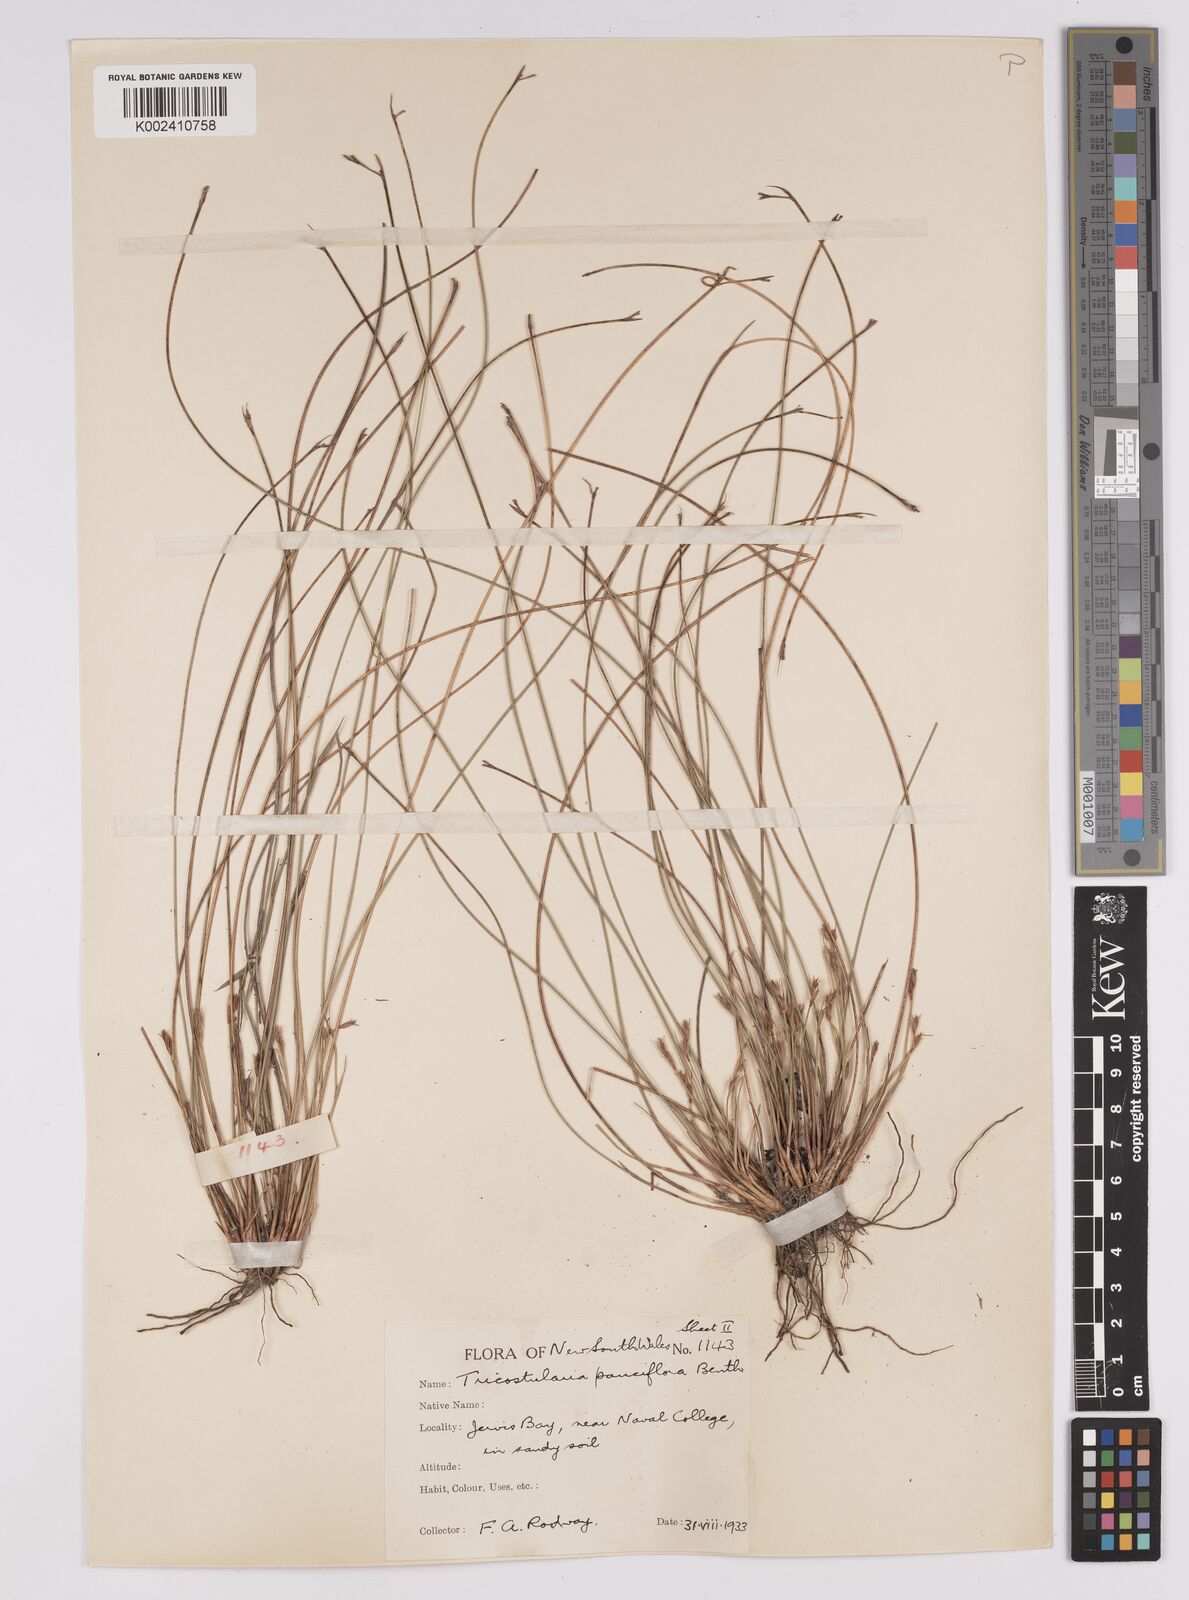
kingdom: Plantae
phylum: Tracheophyta
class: Liliopsida
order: Poales
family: Cyperaceae
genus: Tricostularia
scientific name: Tricostularia pauciflora
